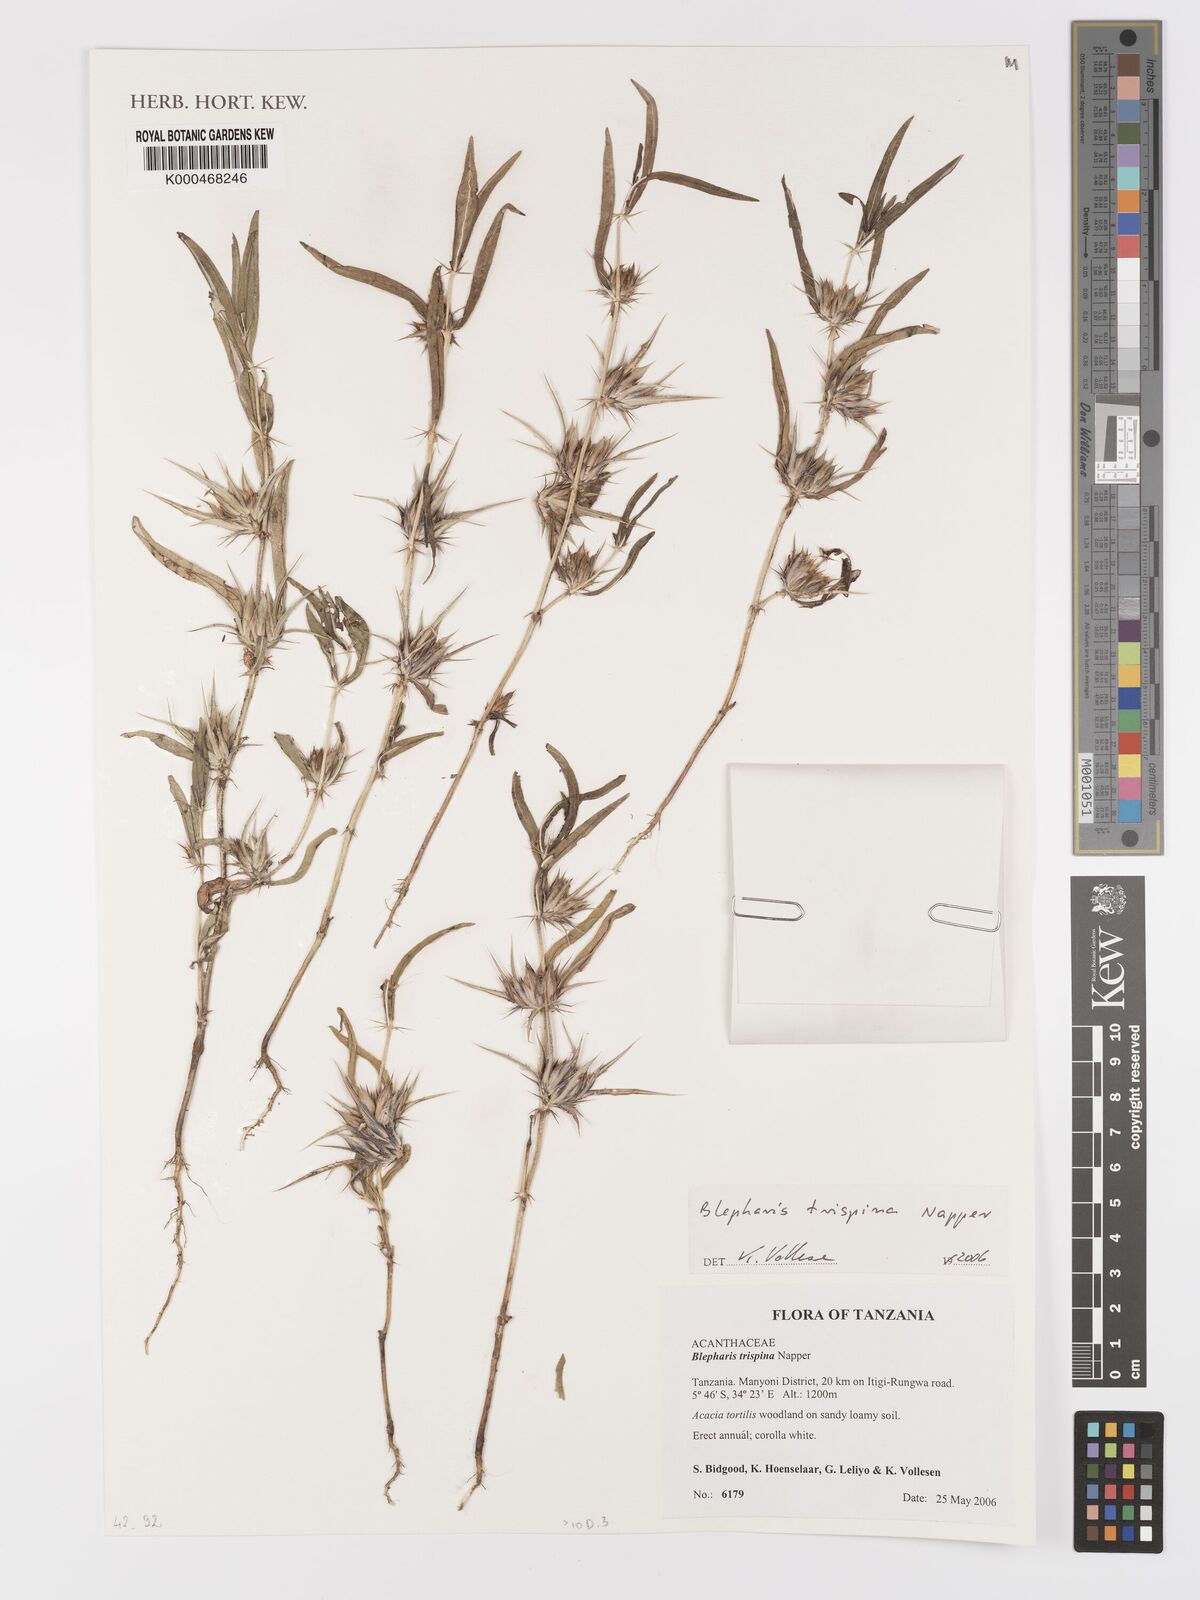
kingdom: Plantae
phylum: Tracheophyta
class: Magnoliopsida
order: Lamiales
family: Acanthaceae
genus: Blepharis
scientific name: Blepharis trispina
